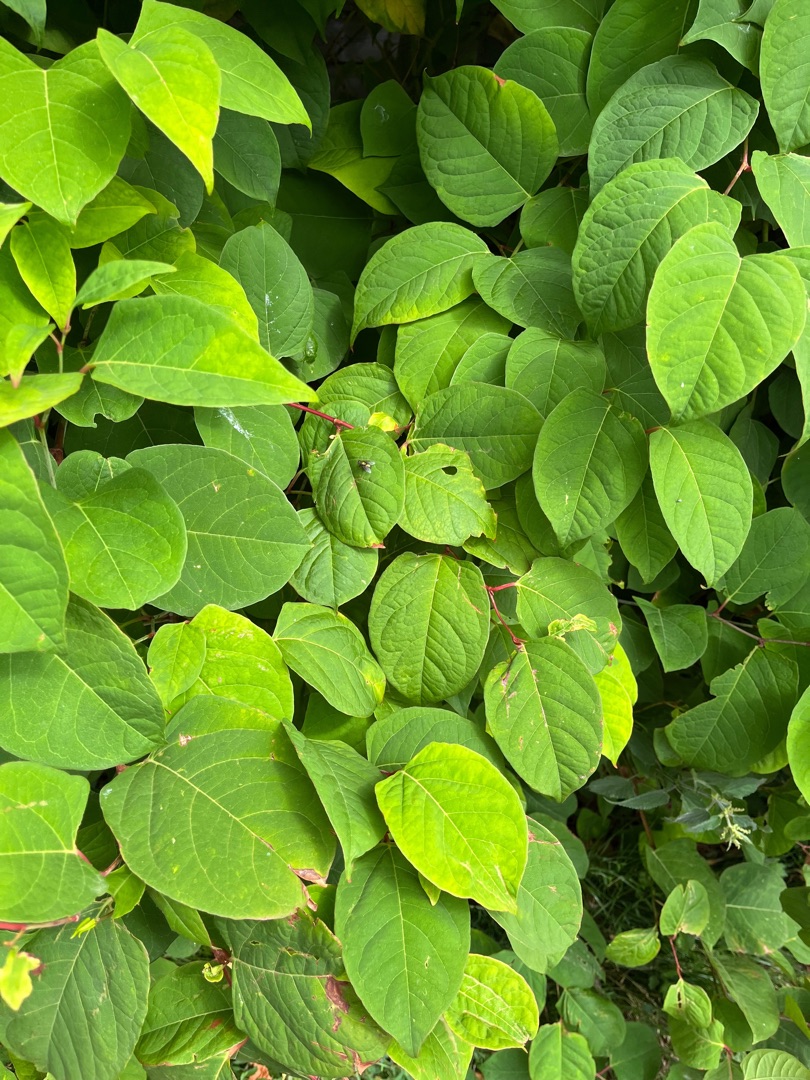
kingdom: Plantae
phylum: Tracheophyta
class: Magnoliopsida
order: Caryophyllales
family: Polygonaceae
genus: Reynoutria
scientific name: Reynoutria japonica
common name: Japan-pileurt
